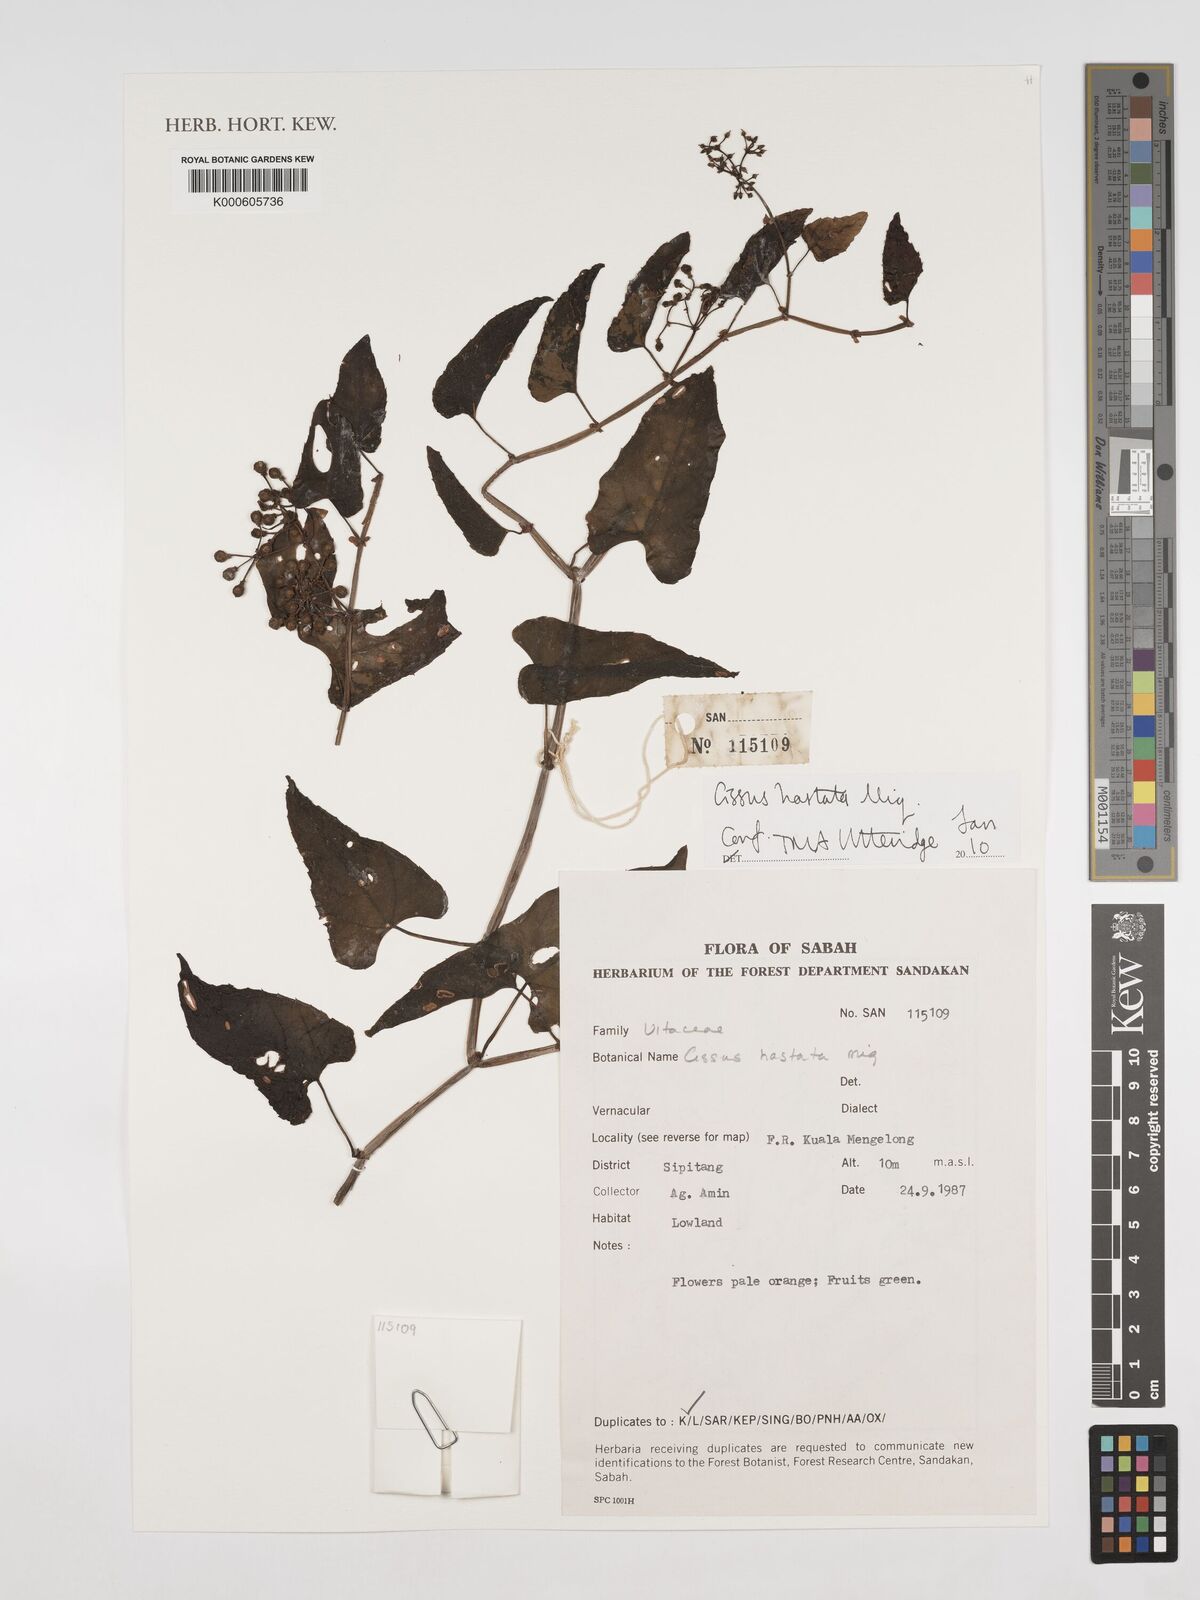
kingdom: Plantae
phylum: Tracheophyta
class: Magnoliopsida
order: Vitales
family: Vitaceae
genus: Cissus
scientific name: Cissus hastata
